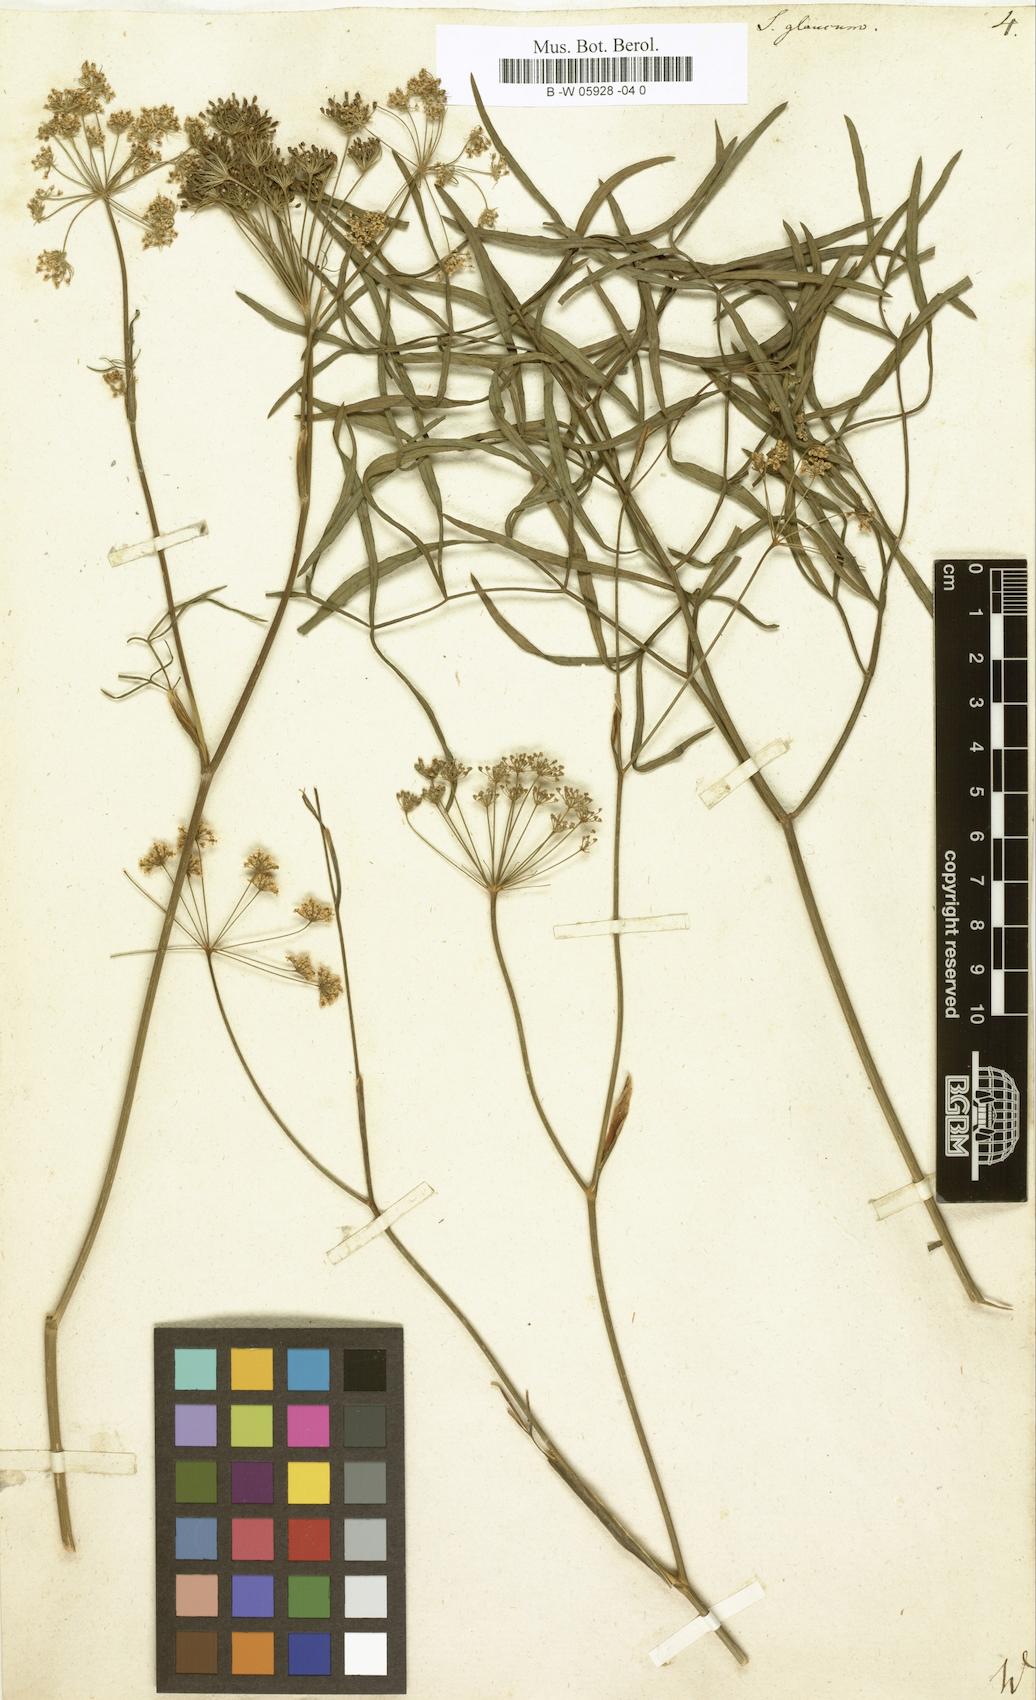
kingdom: Plantae
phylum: Tracheophyta
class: Magnoliopsida
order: Apiales
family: Apiaceae
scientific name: Apiaceae
